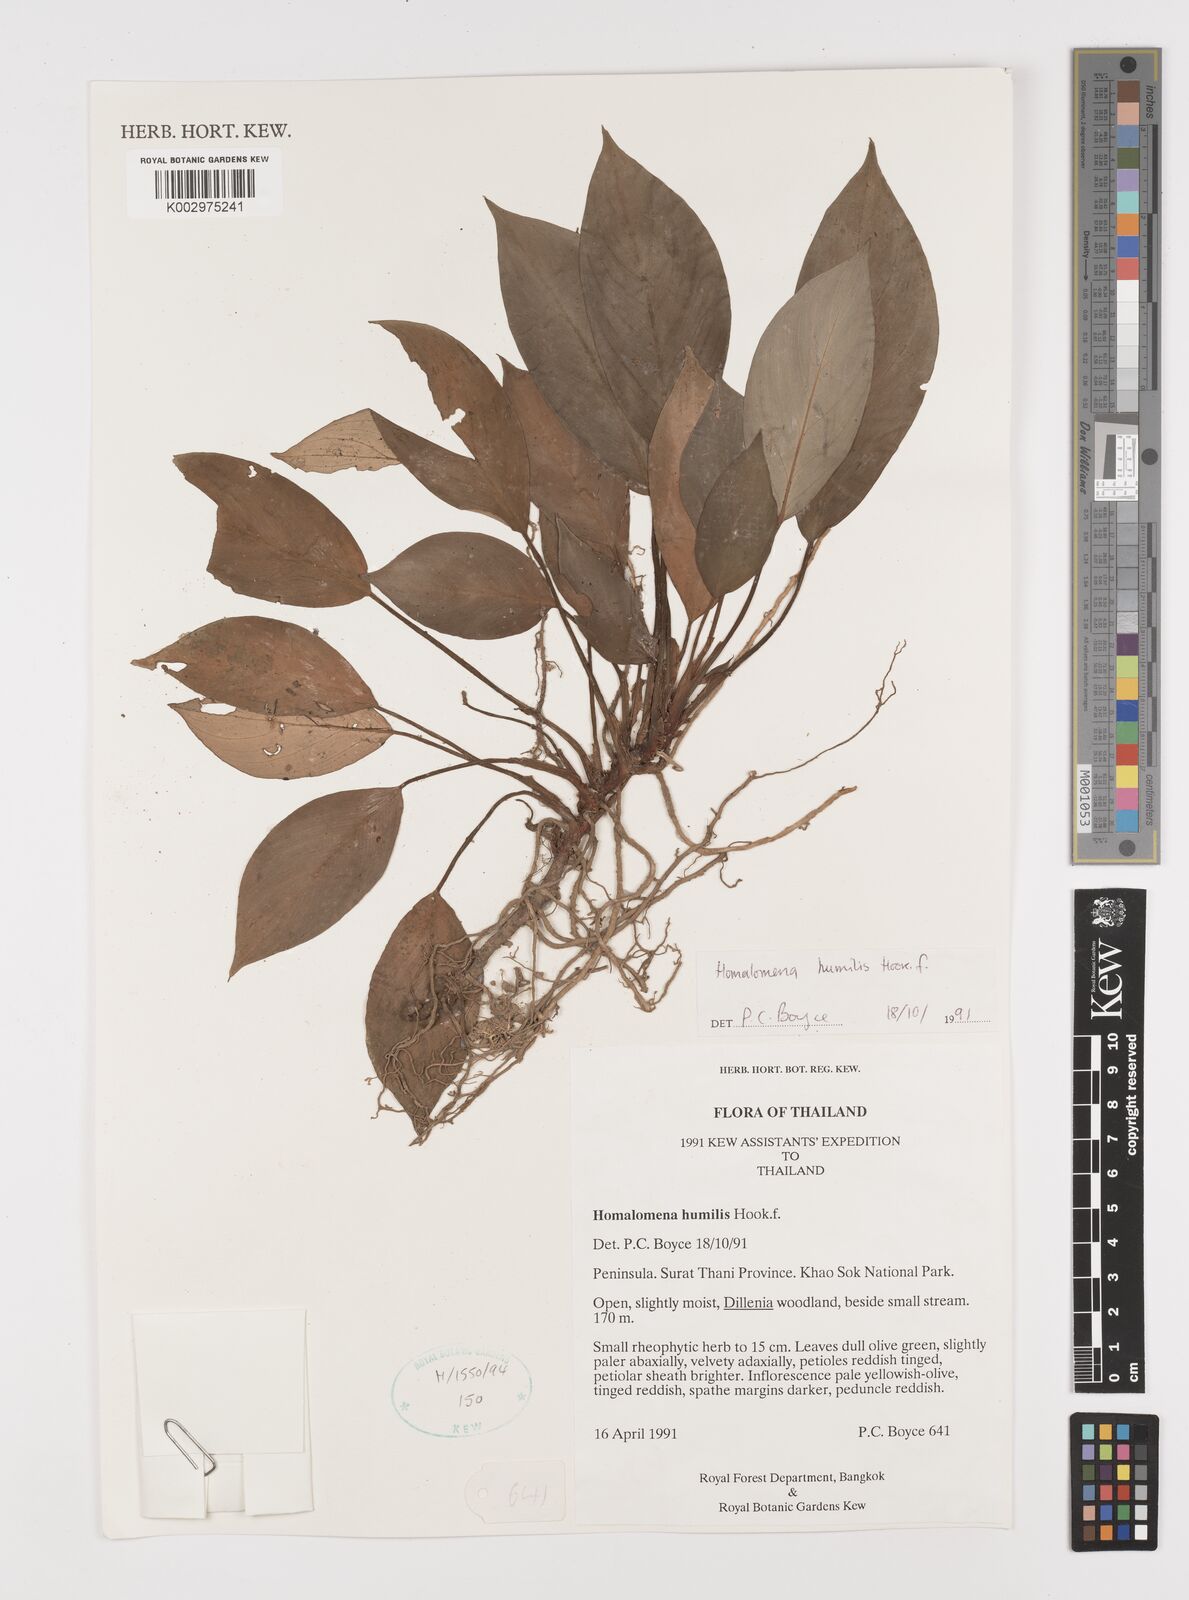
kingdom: Plantae
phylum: Tracheophyta
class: Liliopsida
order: Alismatales
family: Araceae
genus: Homalomena
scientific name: Homalomena humilis
